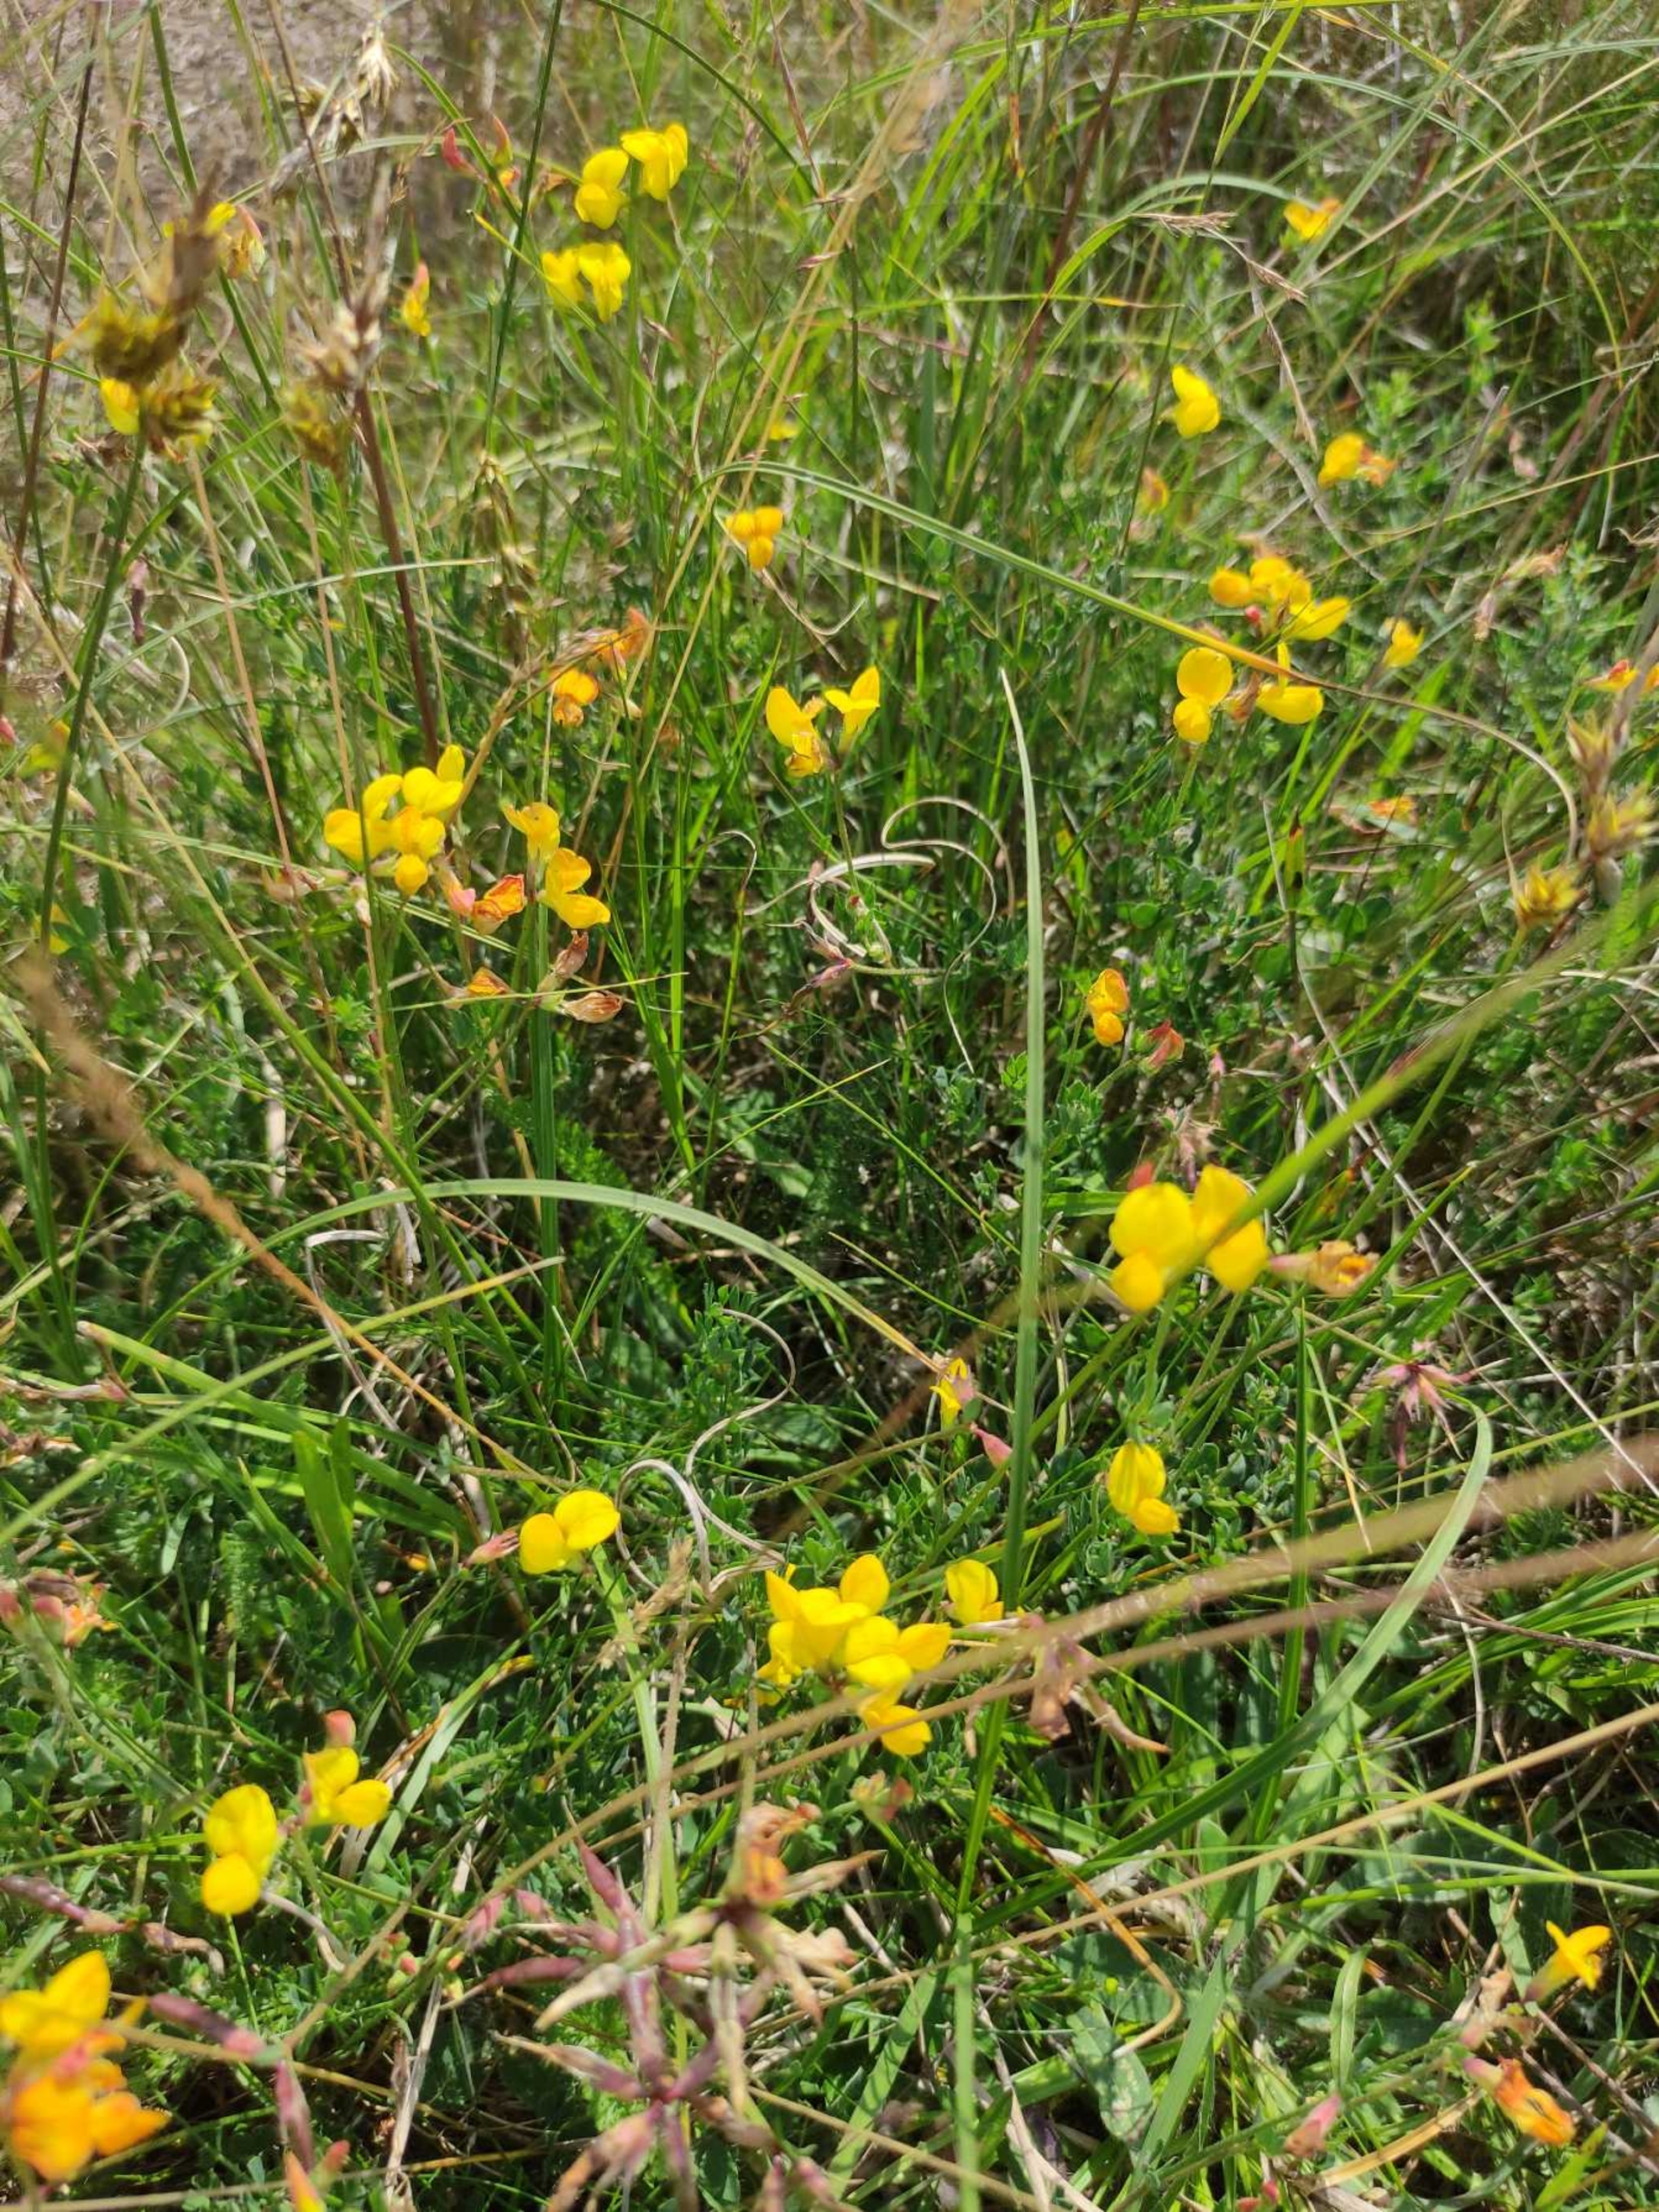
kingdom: Plantae
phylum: Tracheophyta
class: Magnoliopsida
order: Fabales
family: Fabaceae
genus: Lotus
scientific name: Lotus corniculatus
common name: Almindelig kællingetand
